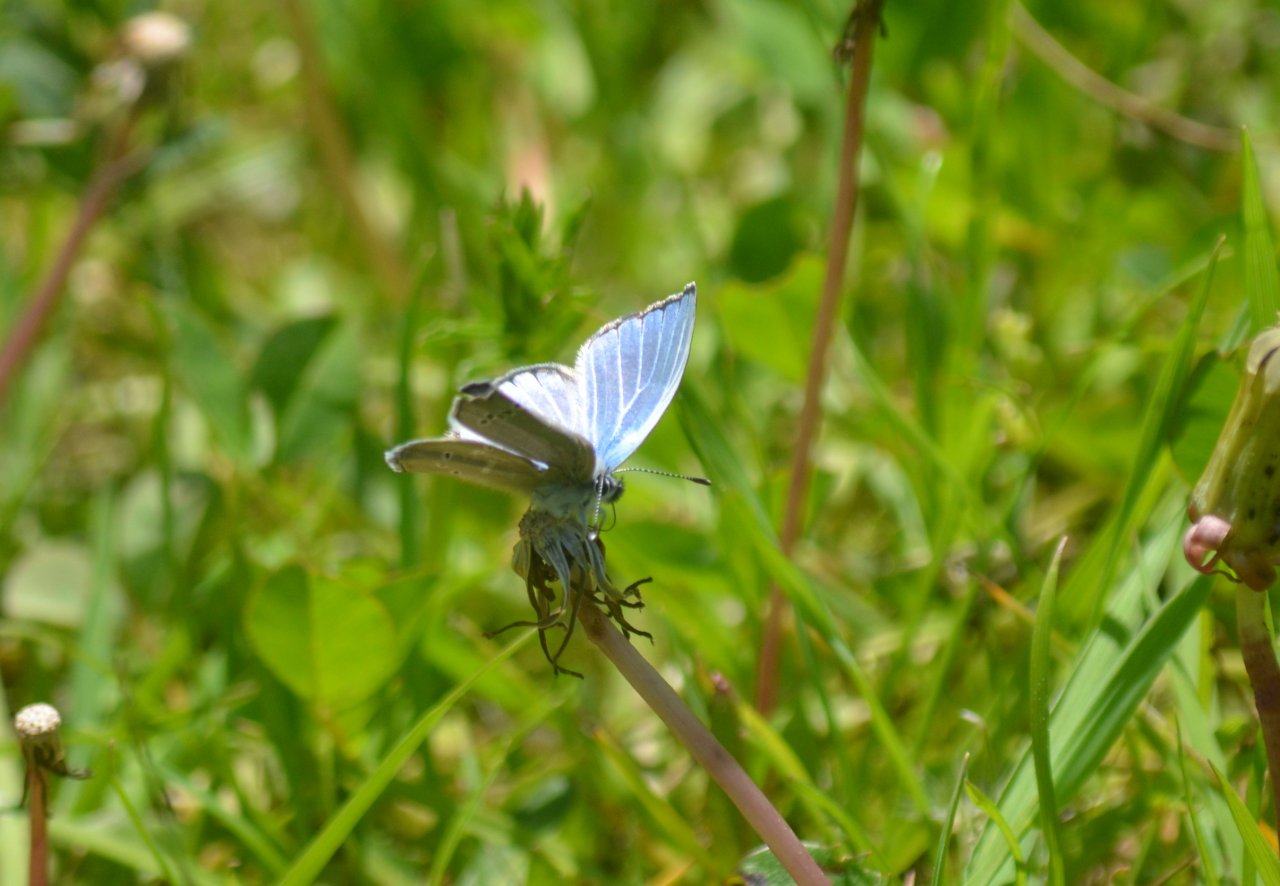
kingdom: Animalia
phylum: Arthropoda
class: Insecta
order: Lepidoptera
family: Lycaenidae
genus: Glaucopsyche
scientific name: Glaucopsyche lygdamus
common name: Silvery Blue
